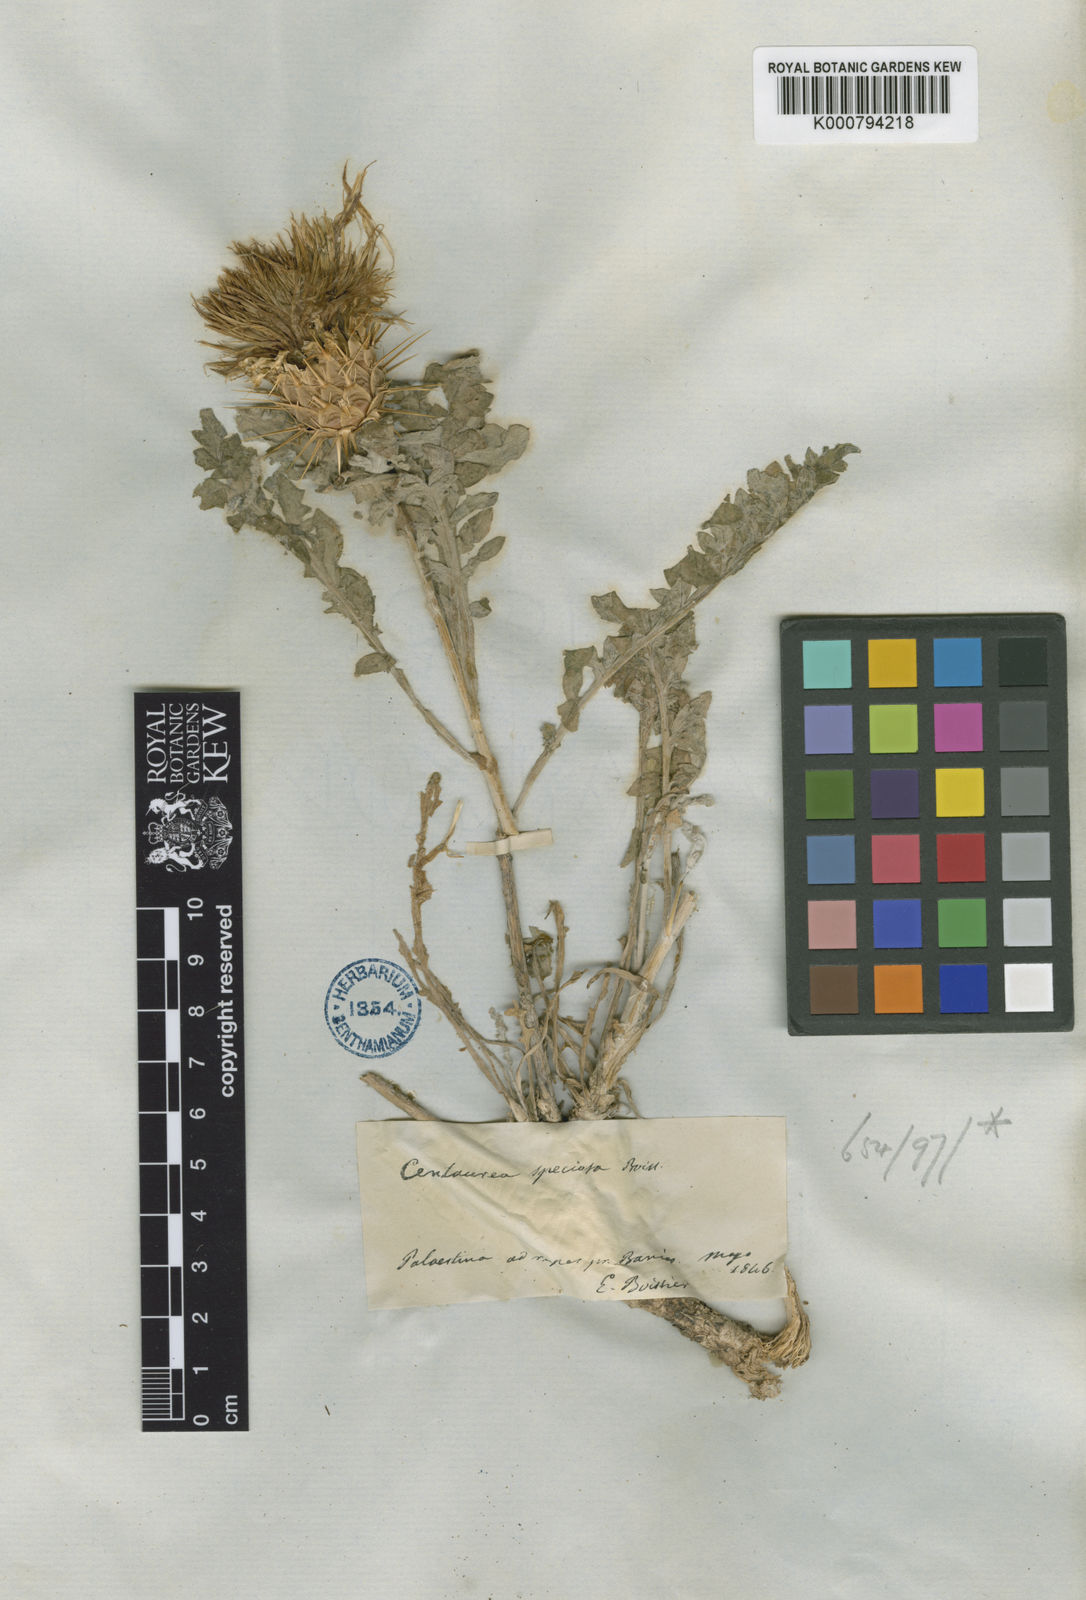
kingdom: Plantae
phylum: Tracheophyta
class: Magnoliopsida
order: Asterales
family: Asteraceae
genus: Centaurea
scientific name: Centaurea speciosa
